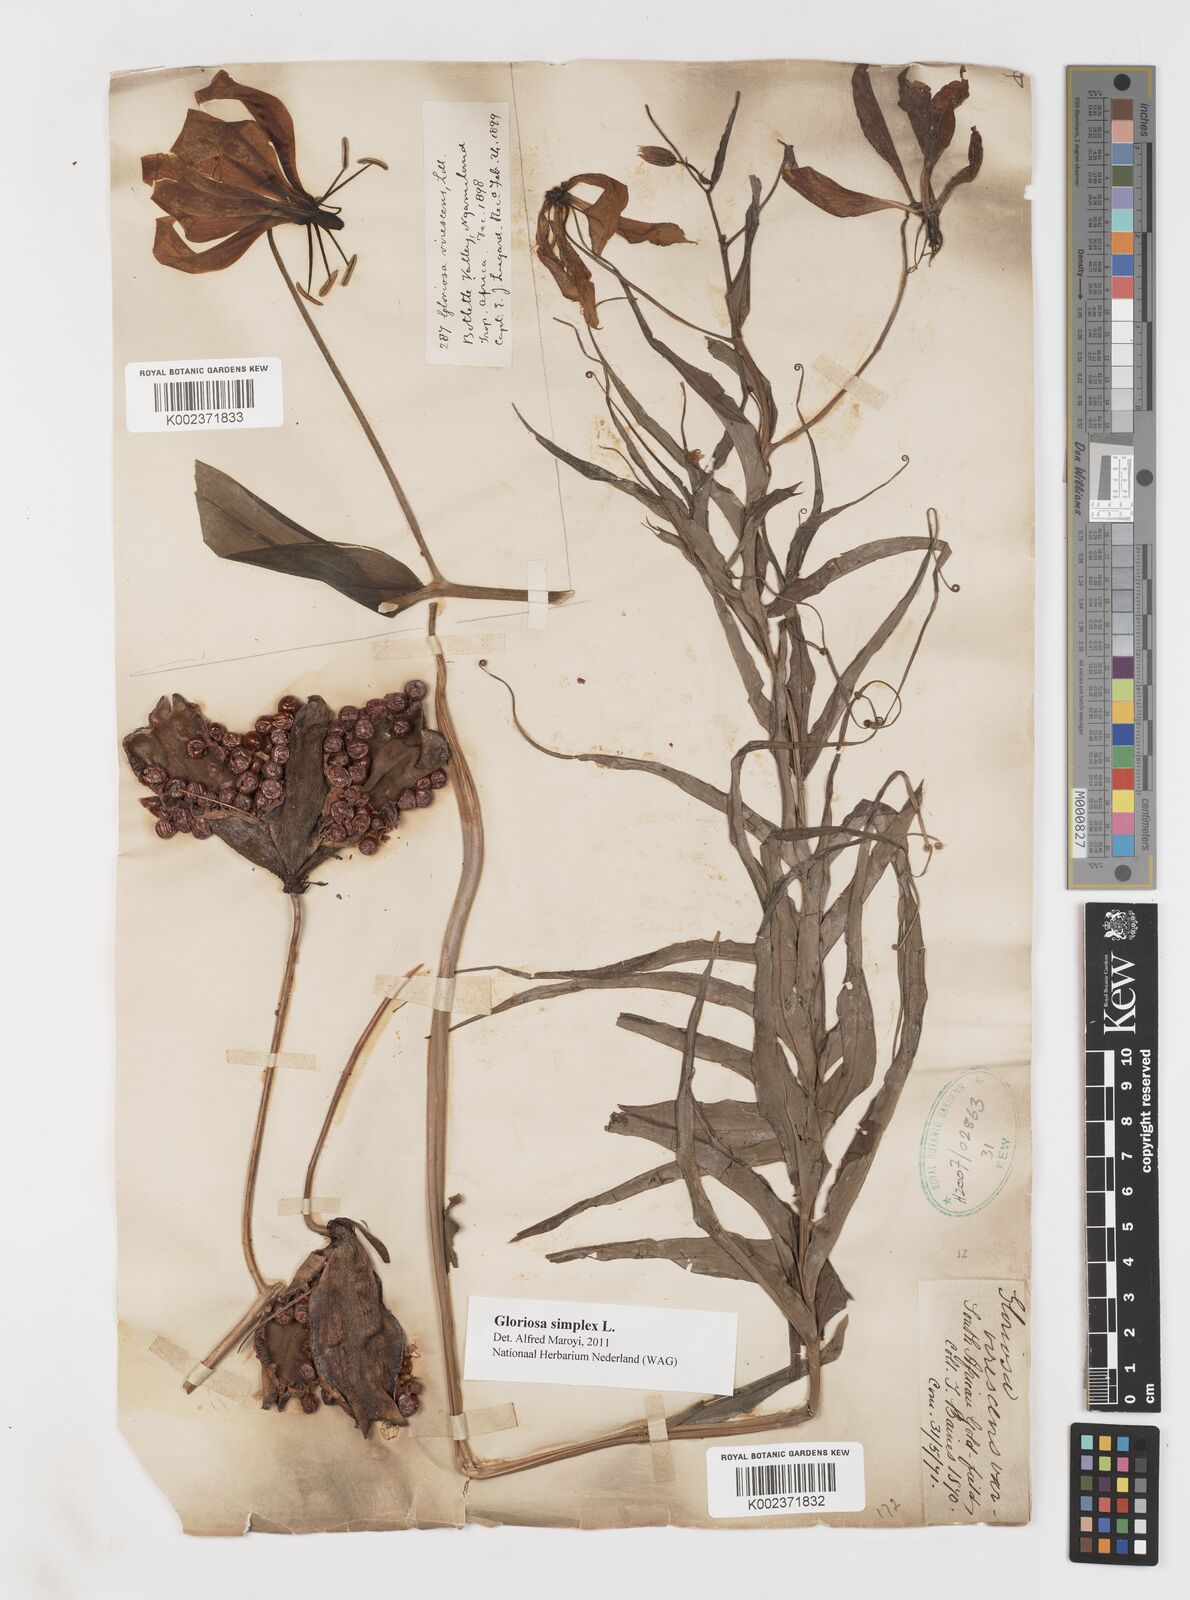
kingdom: Plantae
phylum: Tracheophyta
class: Liliopsida
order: Liliales
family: Colchicaceae
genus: Gloriosa
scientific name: Gloriosa simplex
